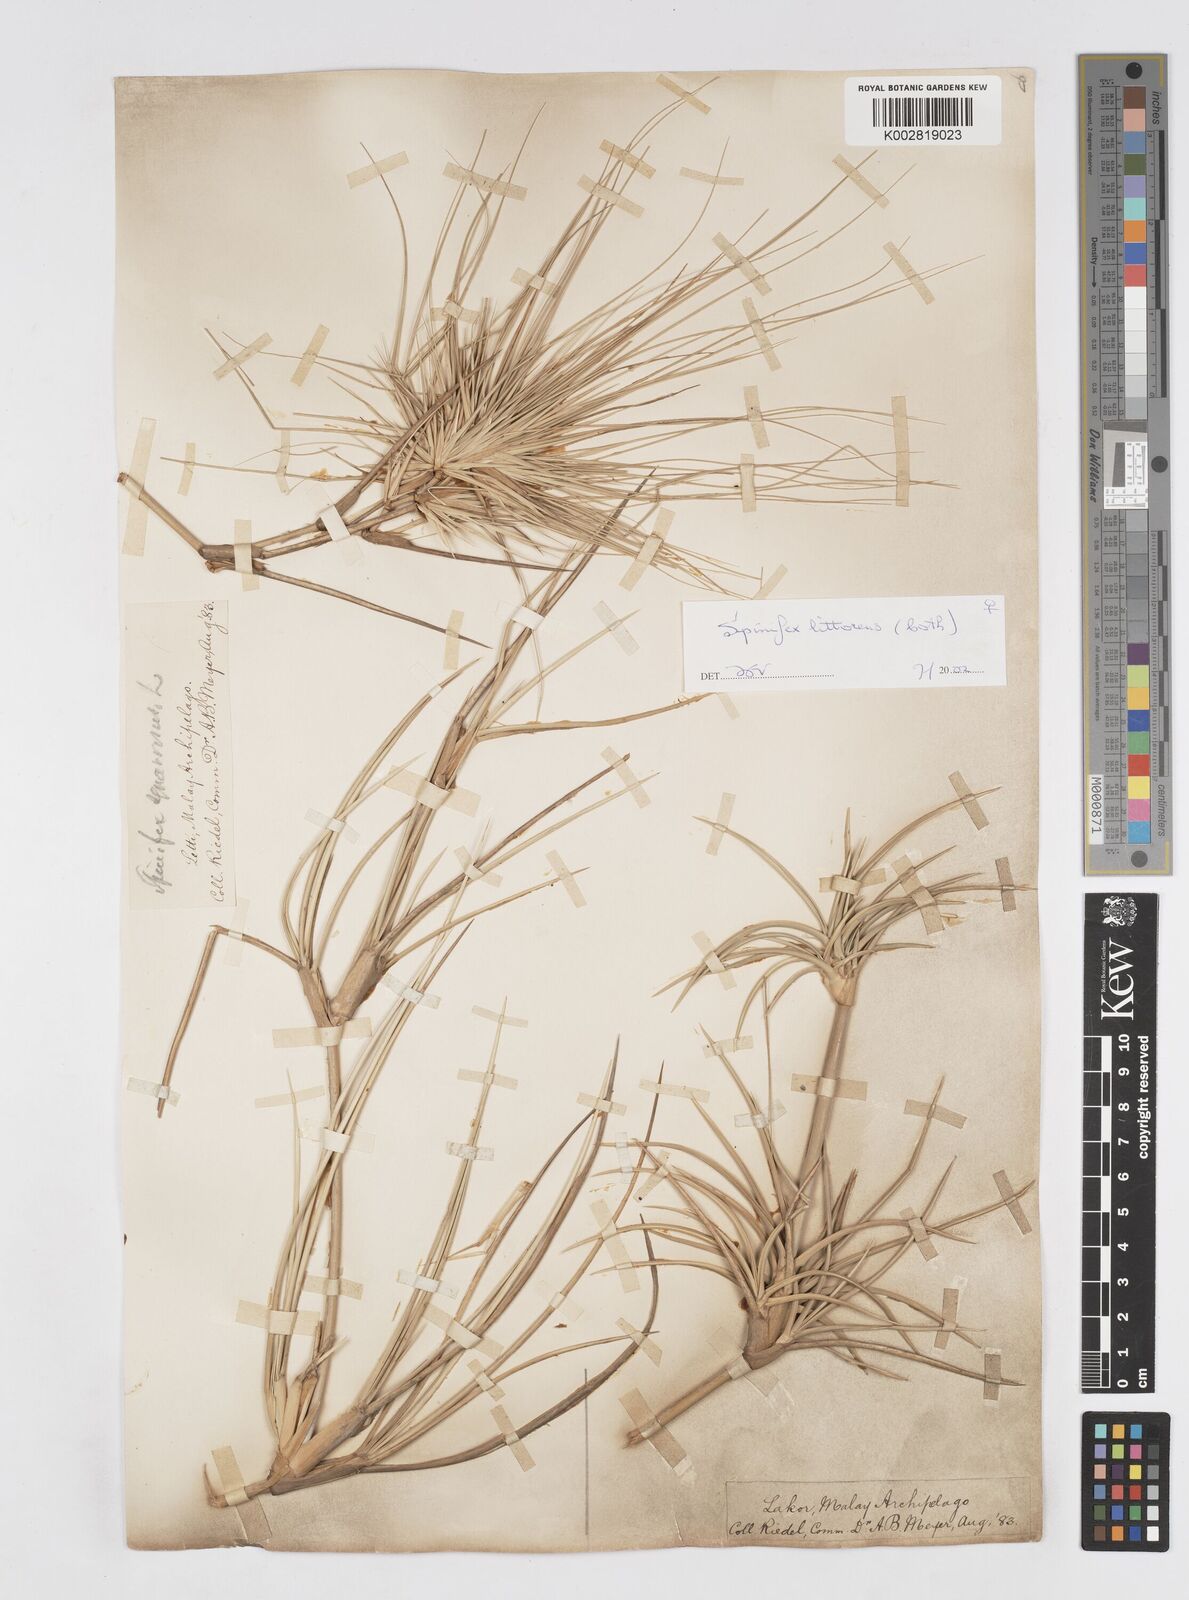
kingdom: Plantae
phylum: Tracheophyta
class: Liliopsida
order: Poales
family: Poaceae
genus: Spinifex
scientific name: Spinifex littoreus
